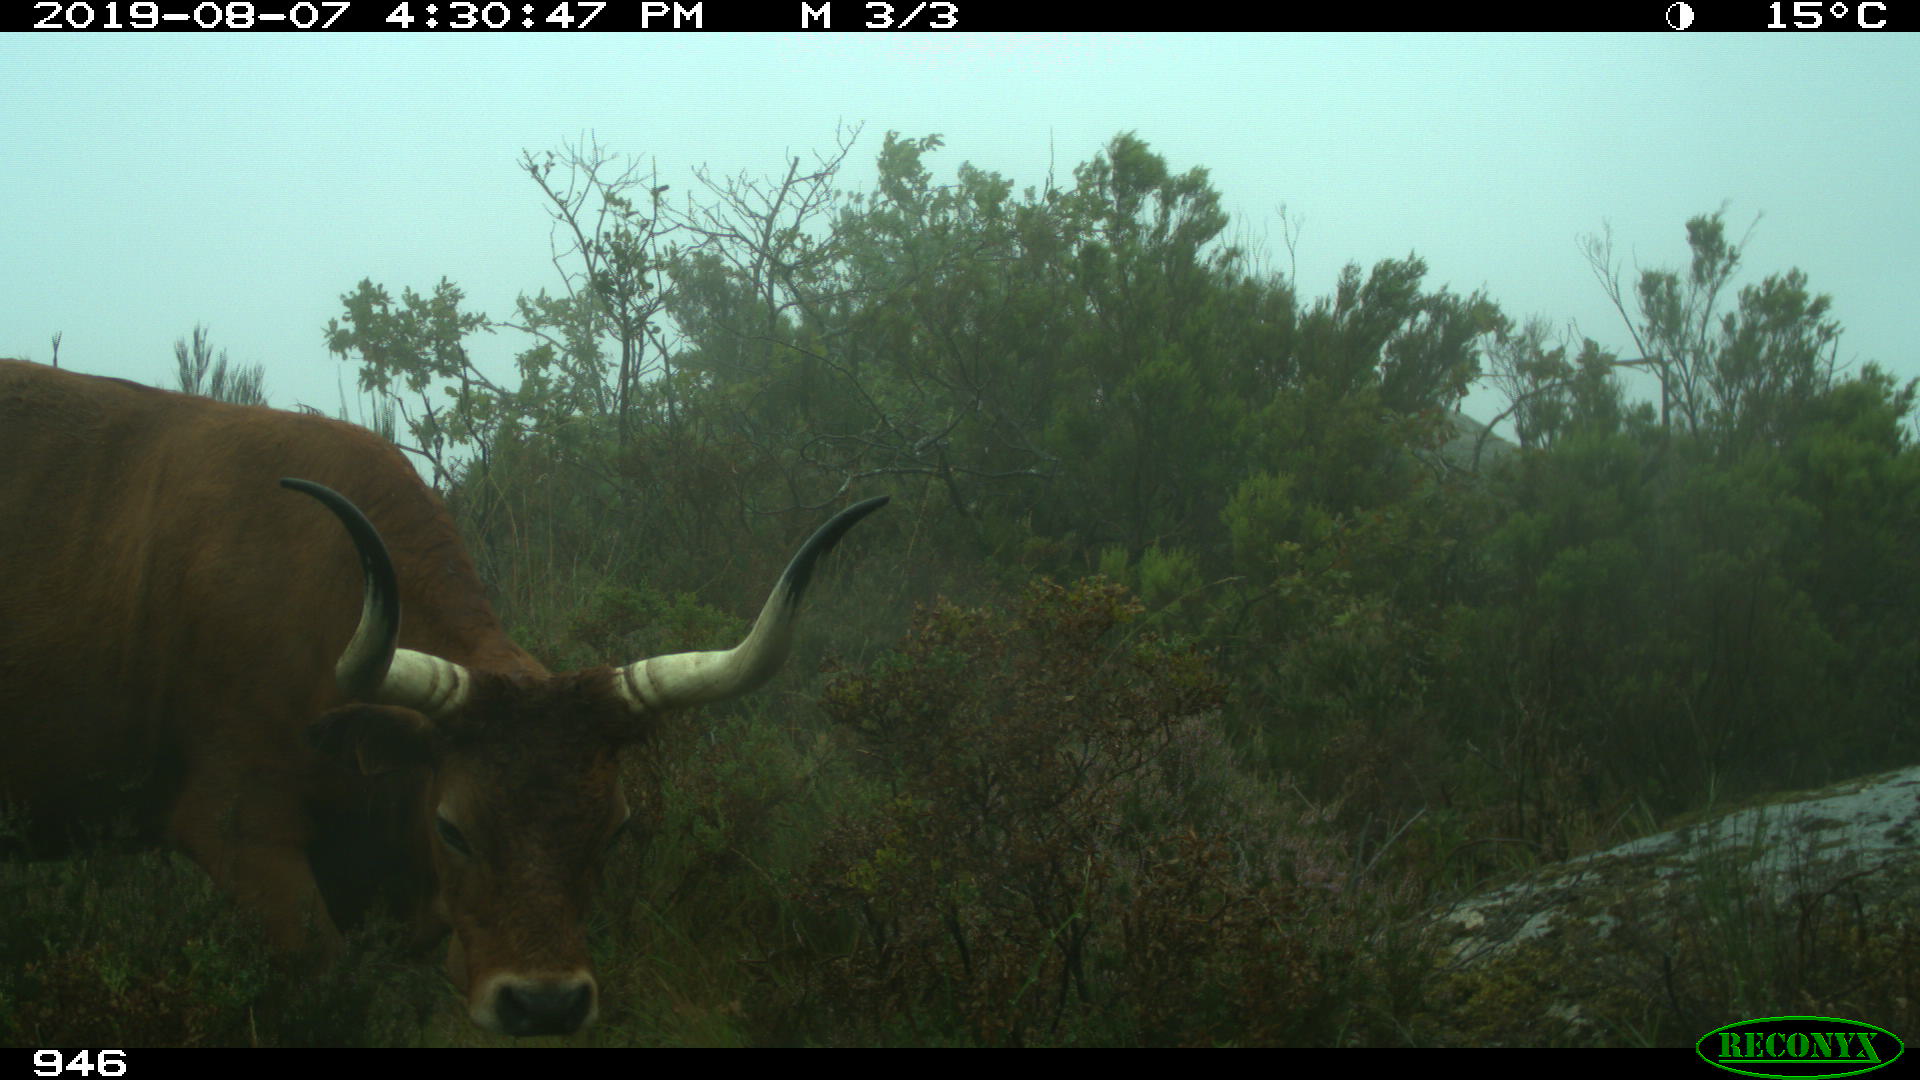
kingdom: Animalia
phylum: Chordata
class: Mammalia
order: Artiodactyla
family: Bovidae
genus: Bos
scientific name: Bos taurus
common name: Domesticated cattle
